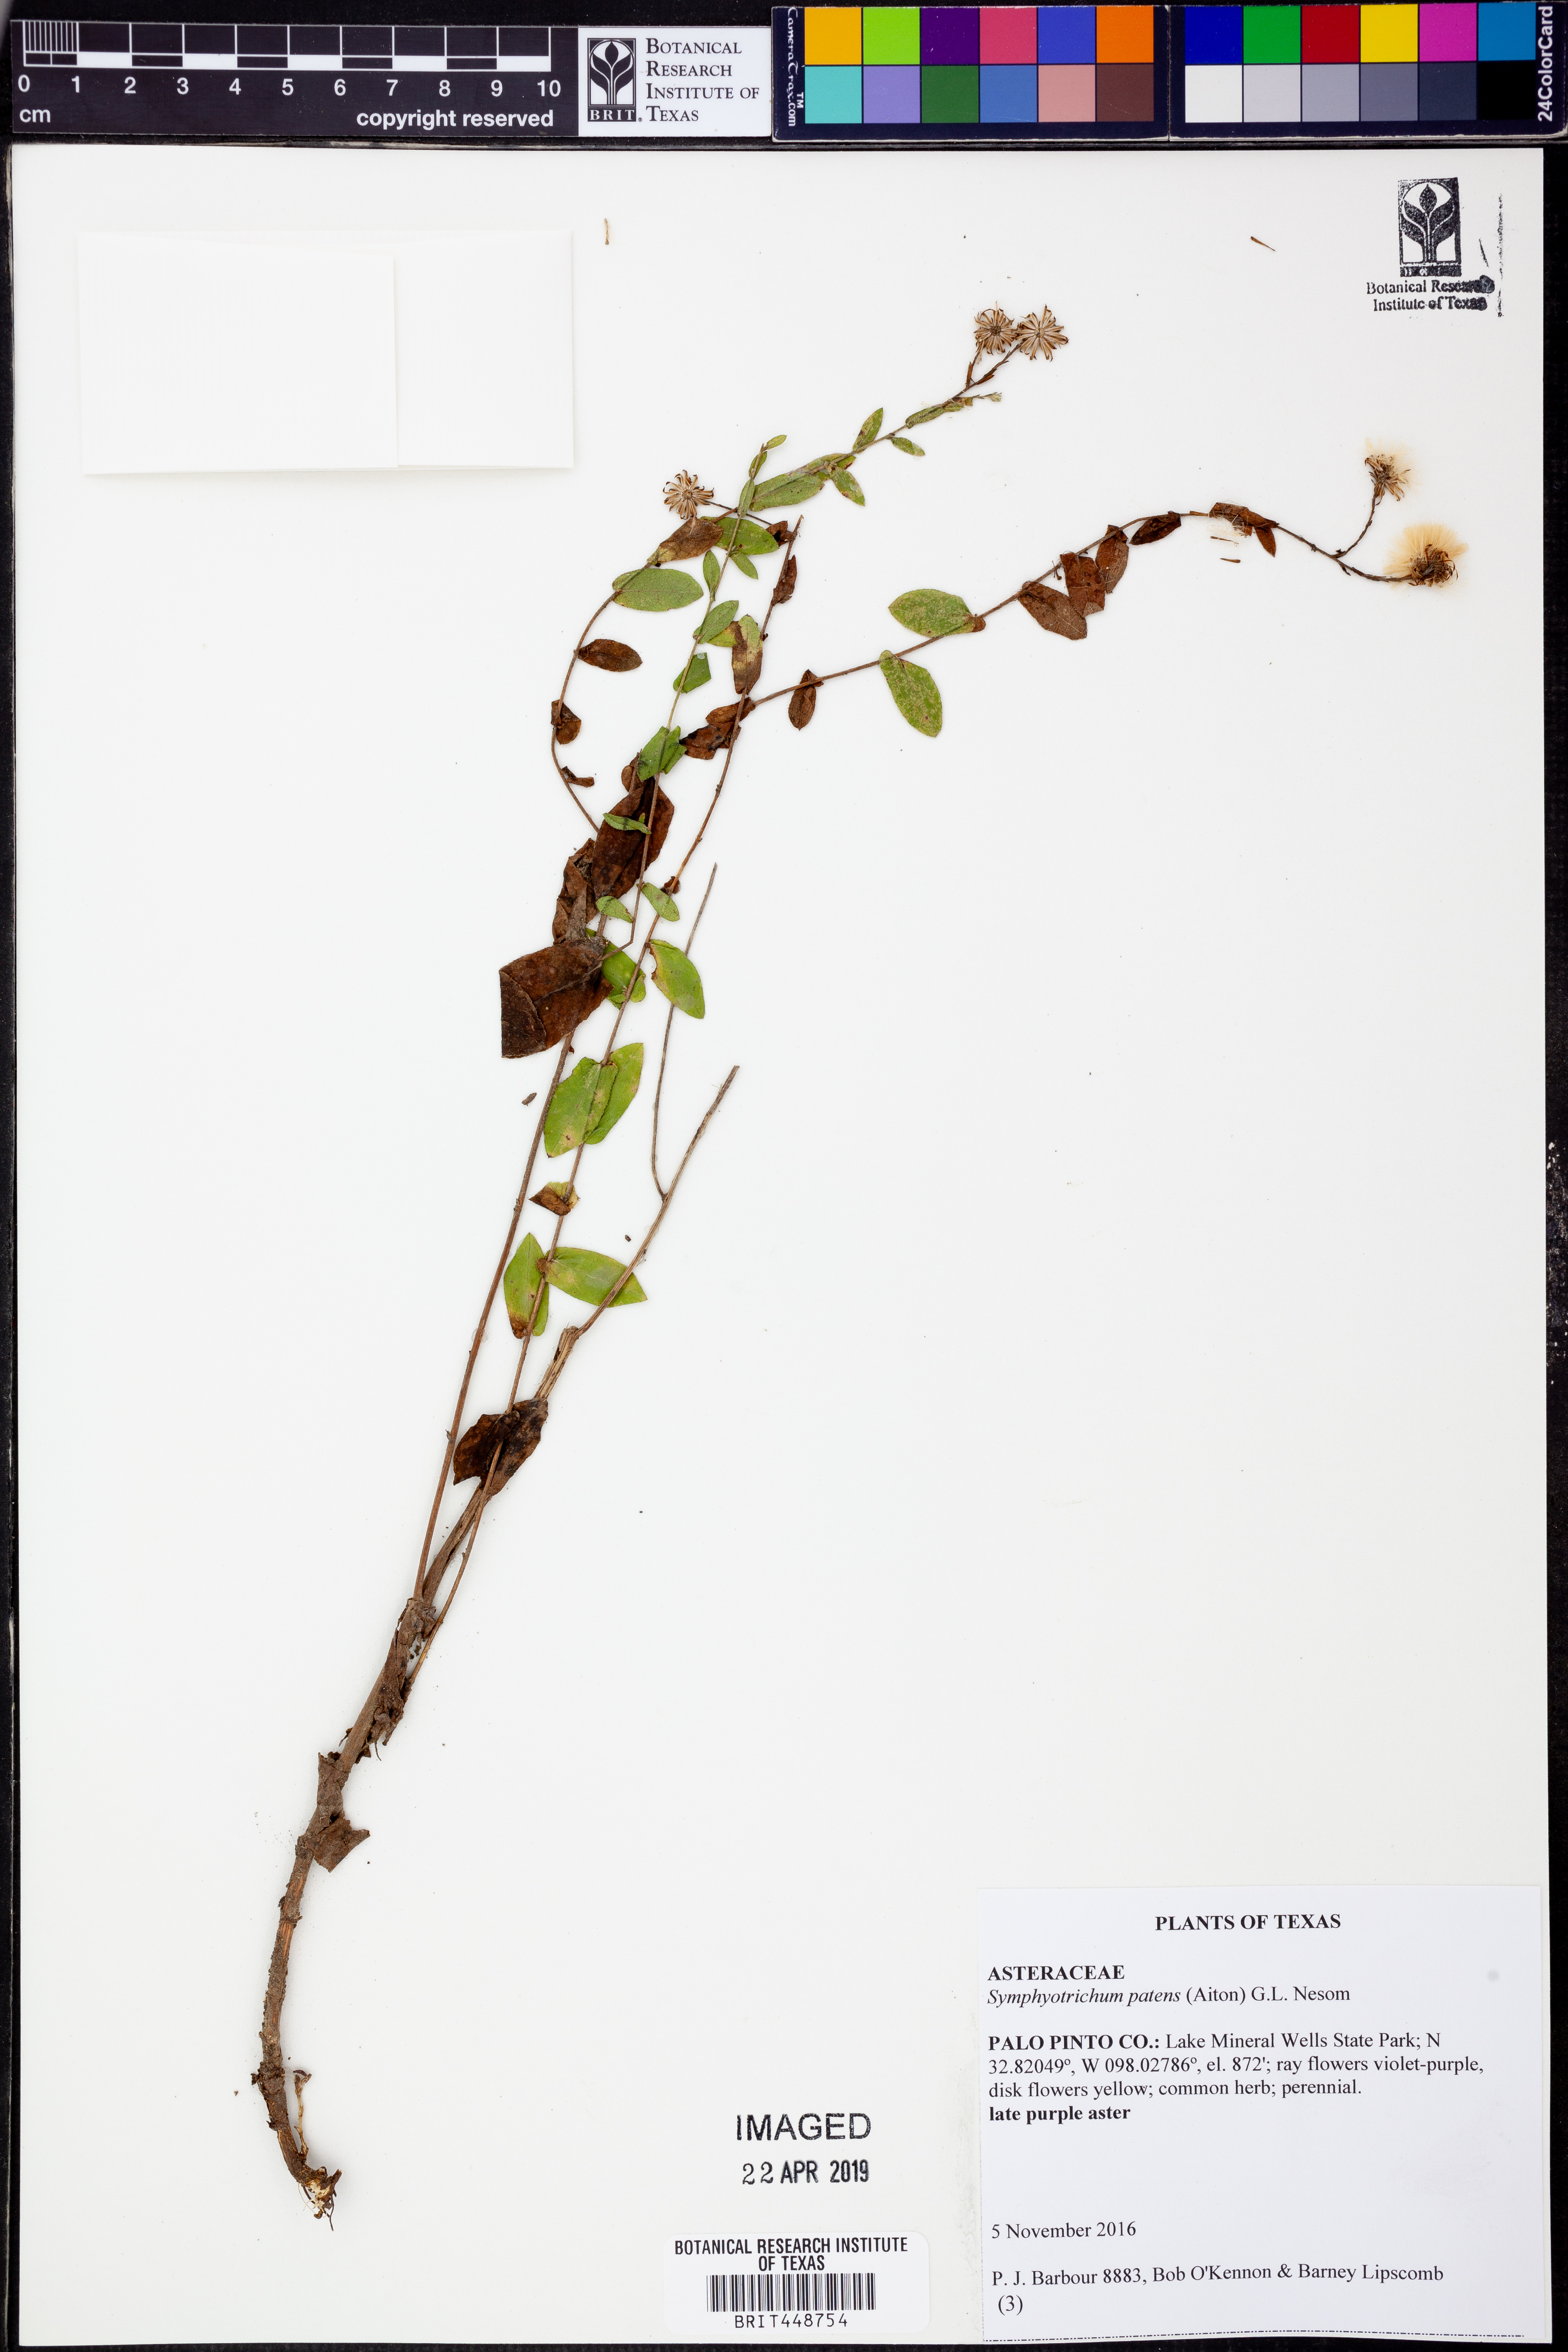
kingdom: Plantae
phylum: Tracheophyta
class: Magnoliopsida
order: Asterales
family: Asteraceae
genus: Symphyotrichum
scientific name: Symphyotrichum patens
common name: Late purple aster
